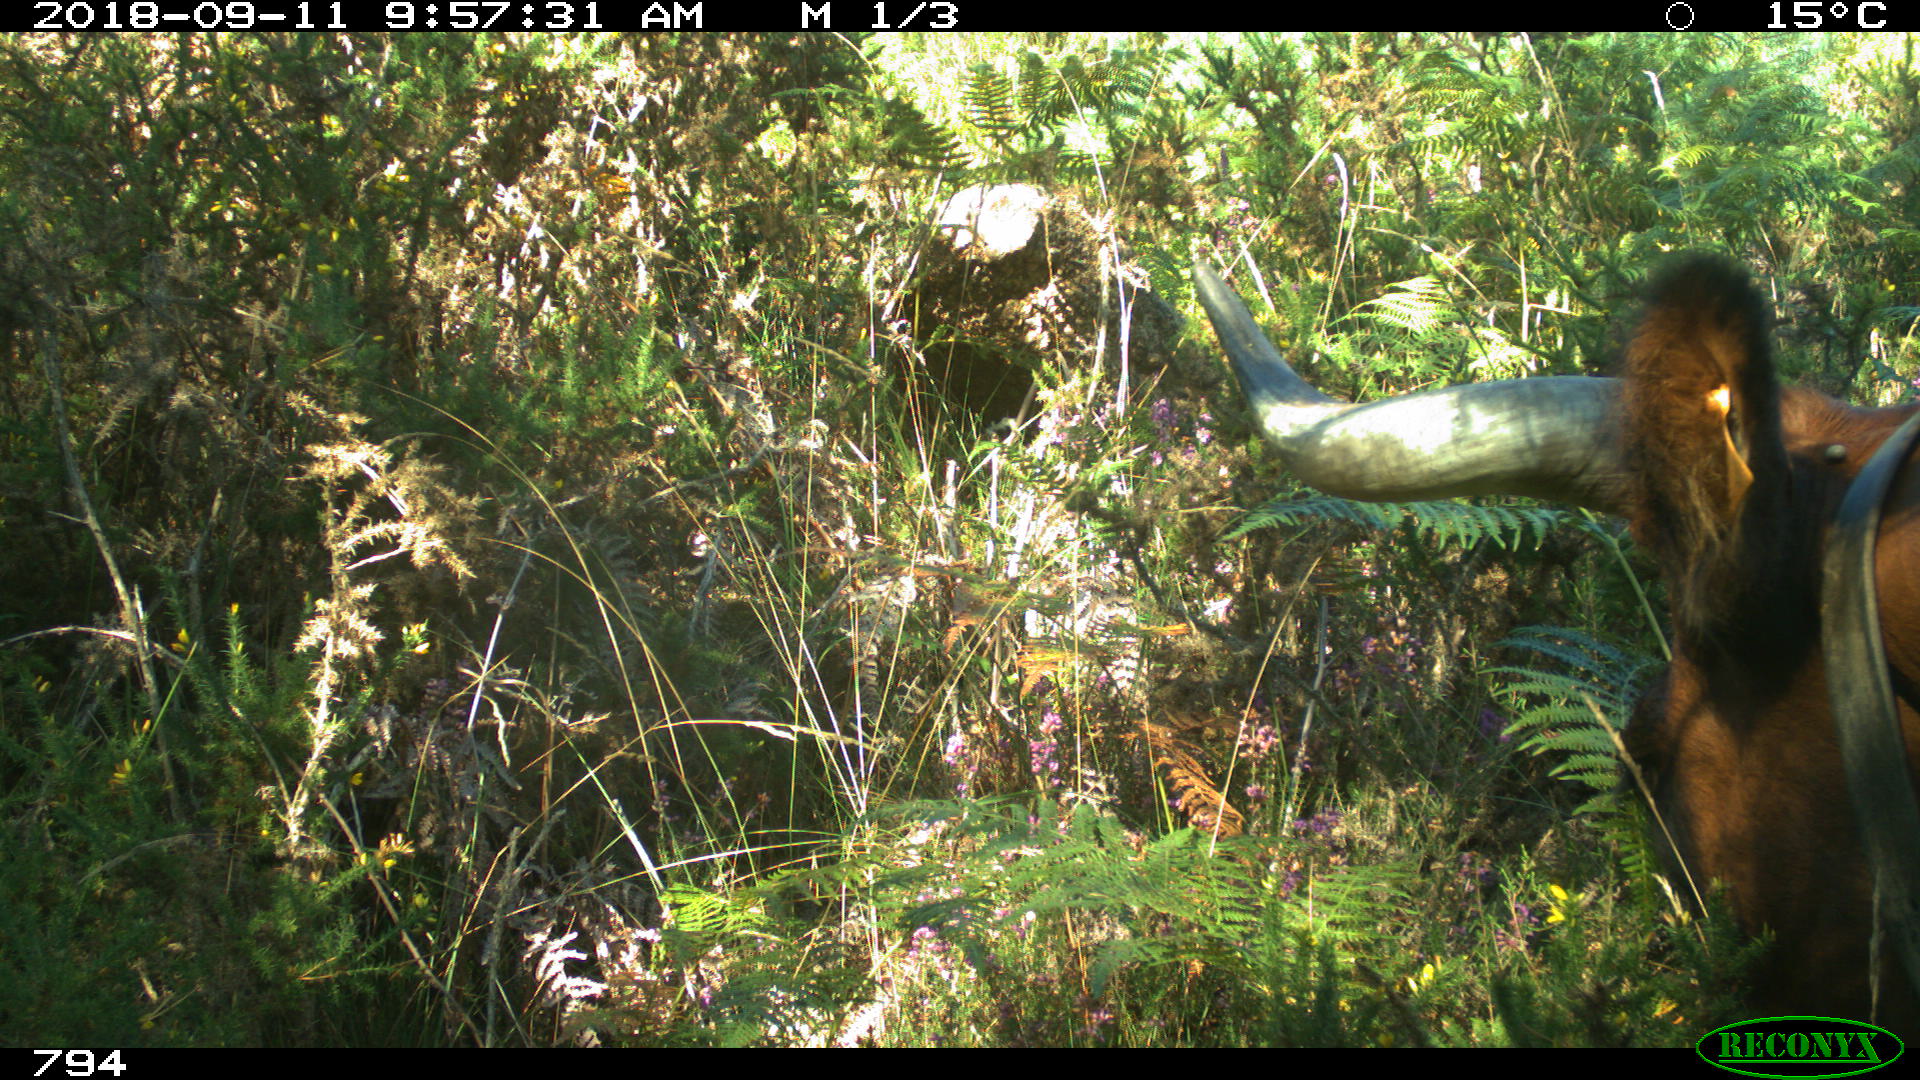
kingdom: Animalia
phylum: Chordata
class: Mammalia
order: Artiodactyla
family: Bovidae
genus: Bos
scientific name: Bos taurus
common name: Domesticated cattle
